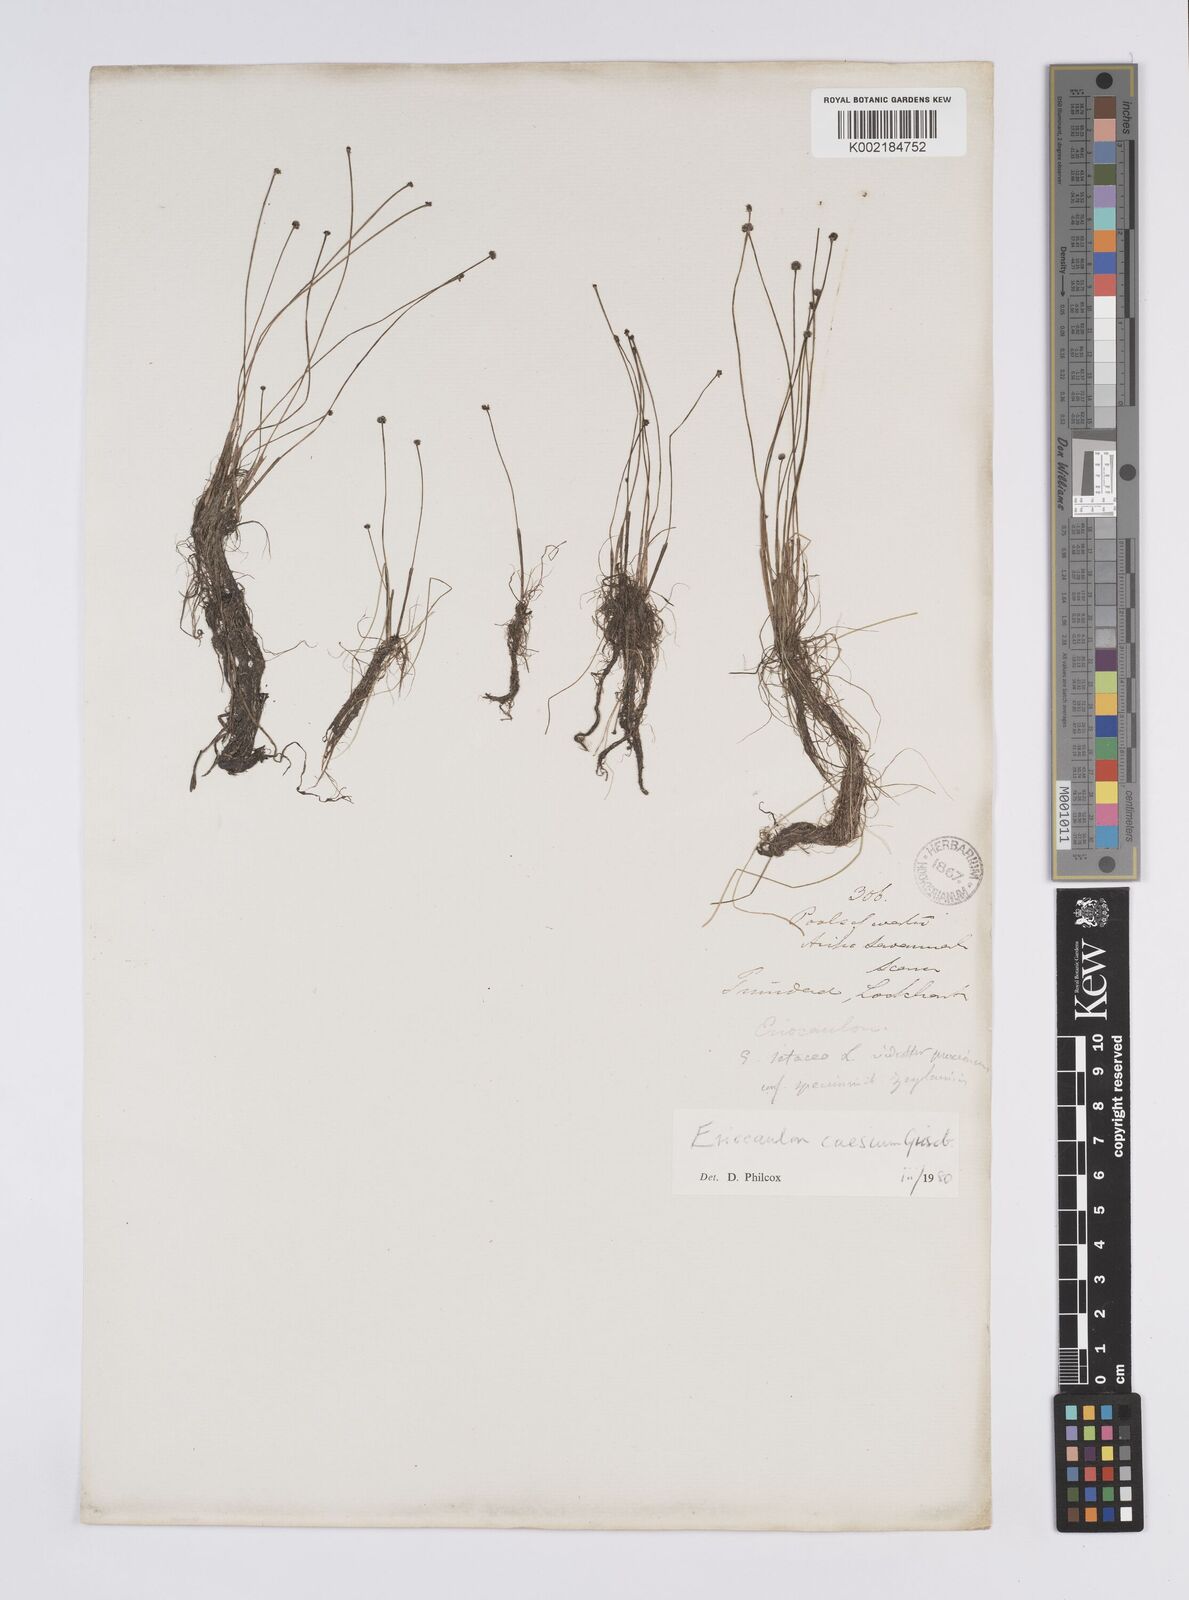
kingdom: Plantae
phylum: Tracheophyta
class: Liliopsida
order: Poales
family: Eriocaulaceae
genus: Eriocaulon
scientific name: Eriocaulon caesium
